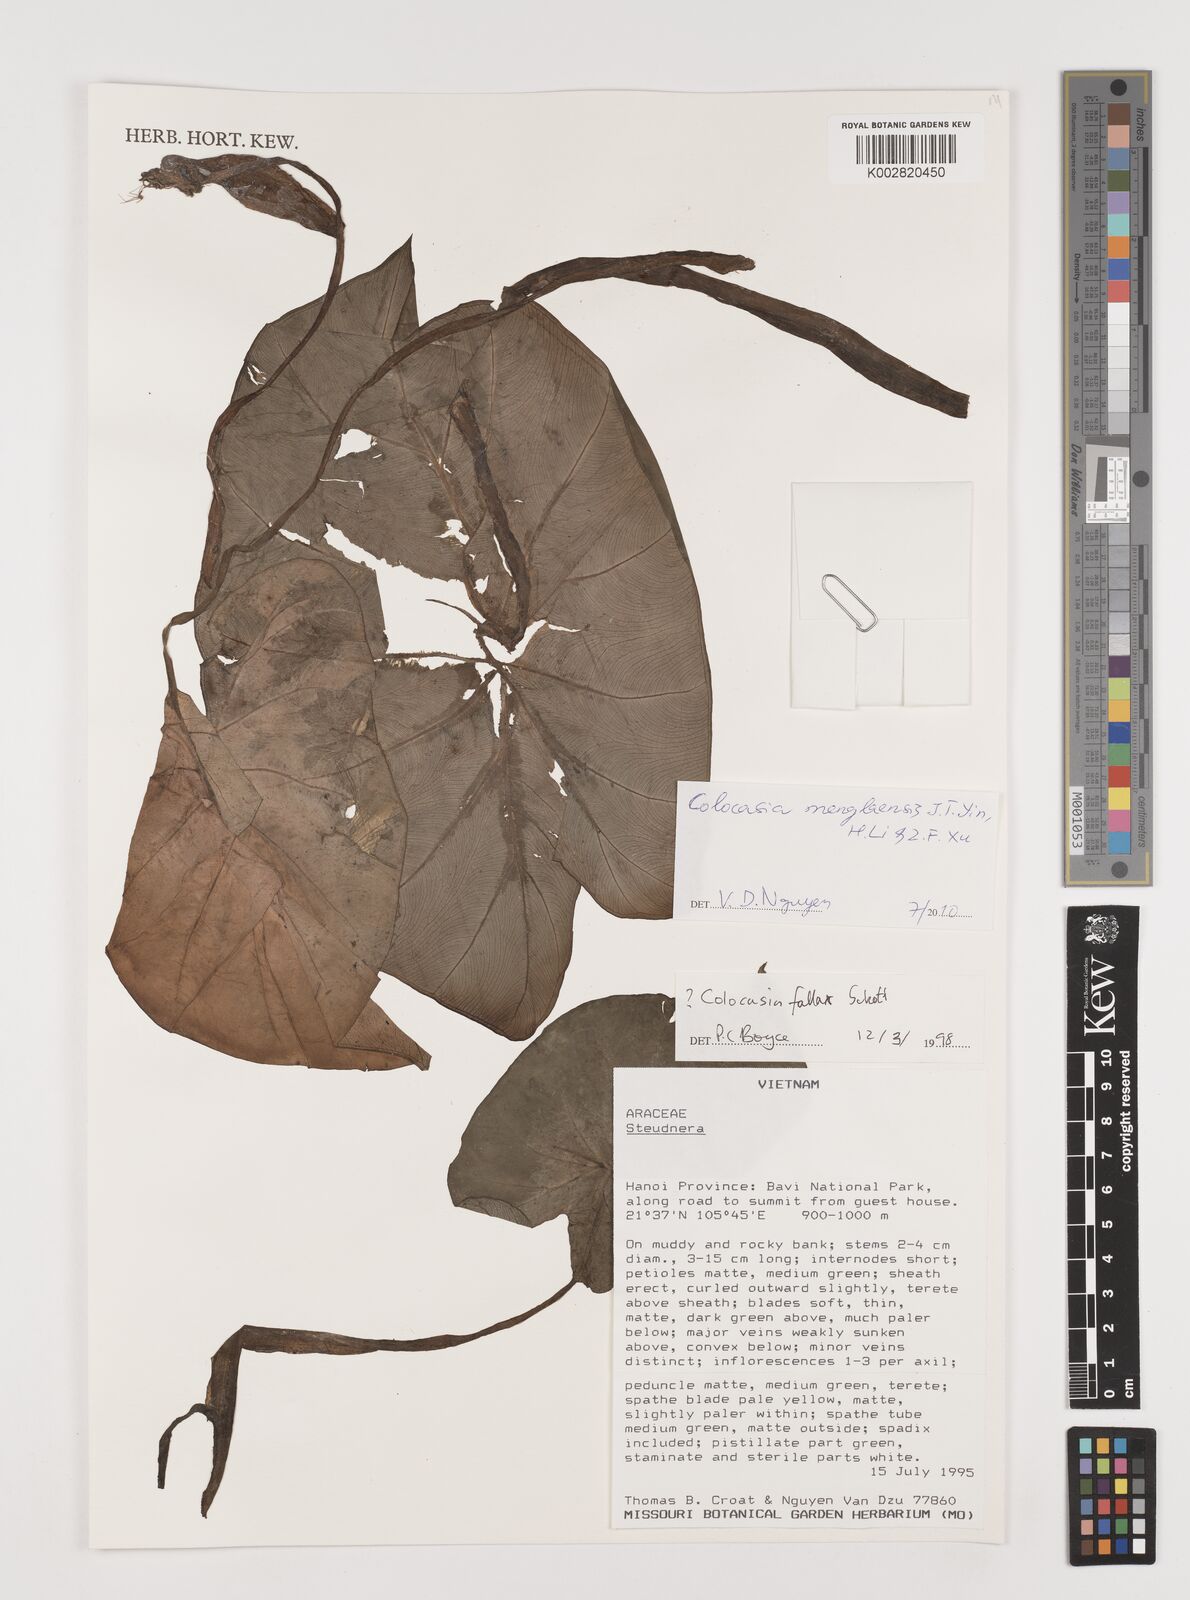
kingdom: Plantae
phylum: Tracheophyta
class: Liliopsida
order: Alismatales
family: Araceae
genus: Colocasia
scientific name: Colocasia fallax
